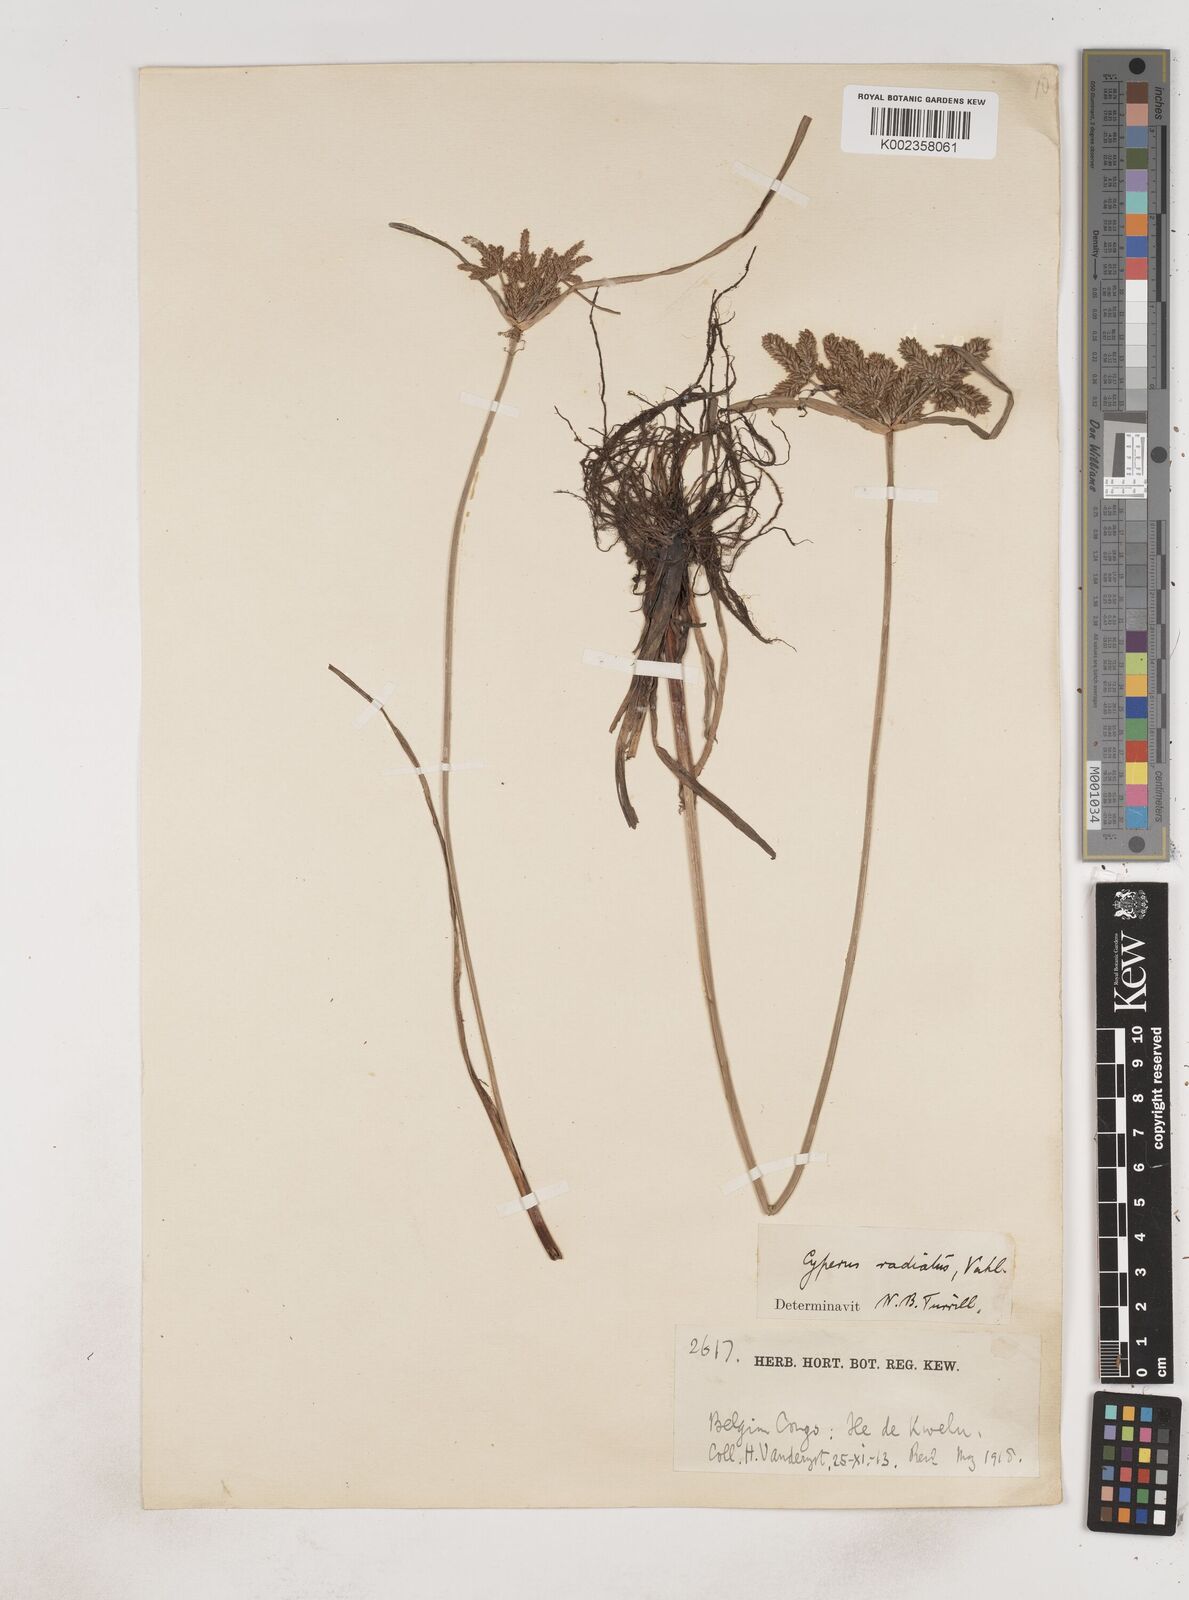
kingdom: Plantae
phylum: Tracheophyta
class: Liliopsida
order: Poales
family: Cyperaceae
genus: Cyperus
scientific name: Cyperus imbricatus
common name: Shingle flatsedge
